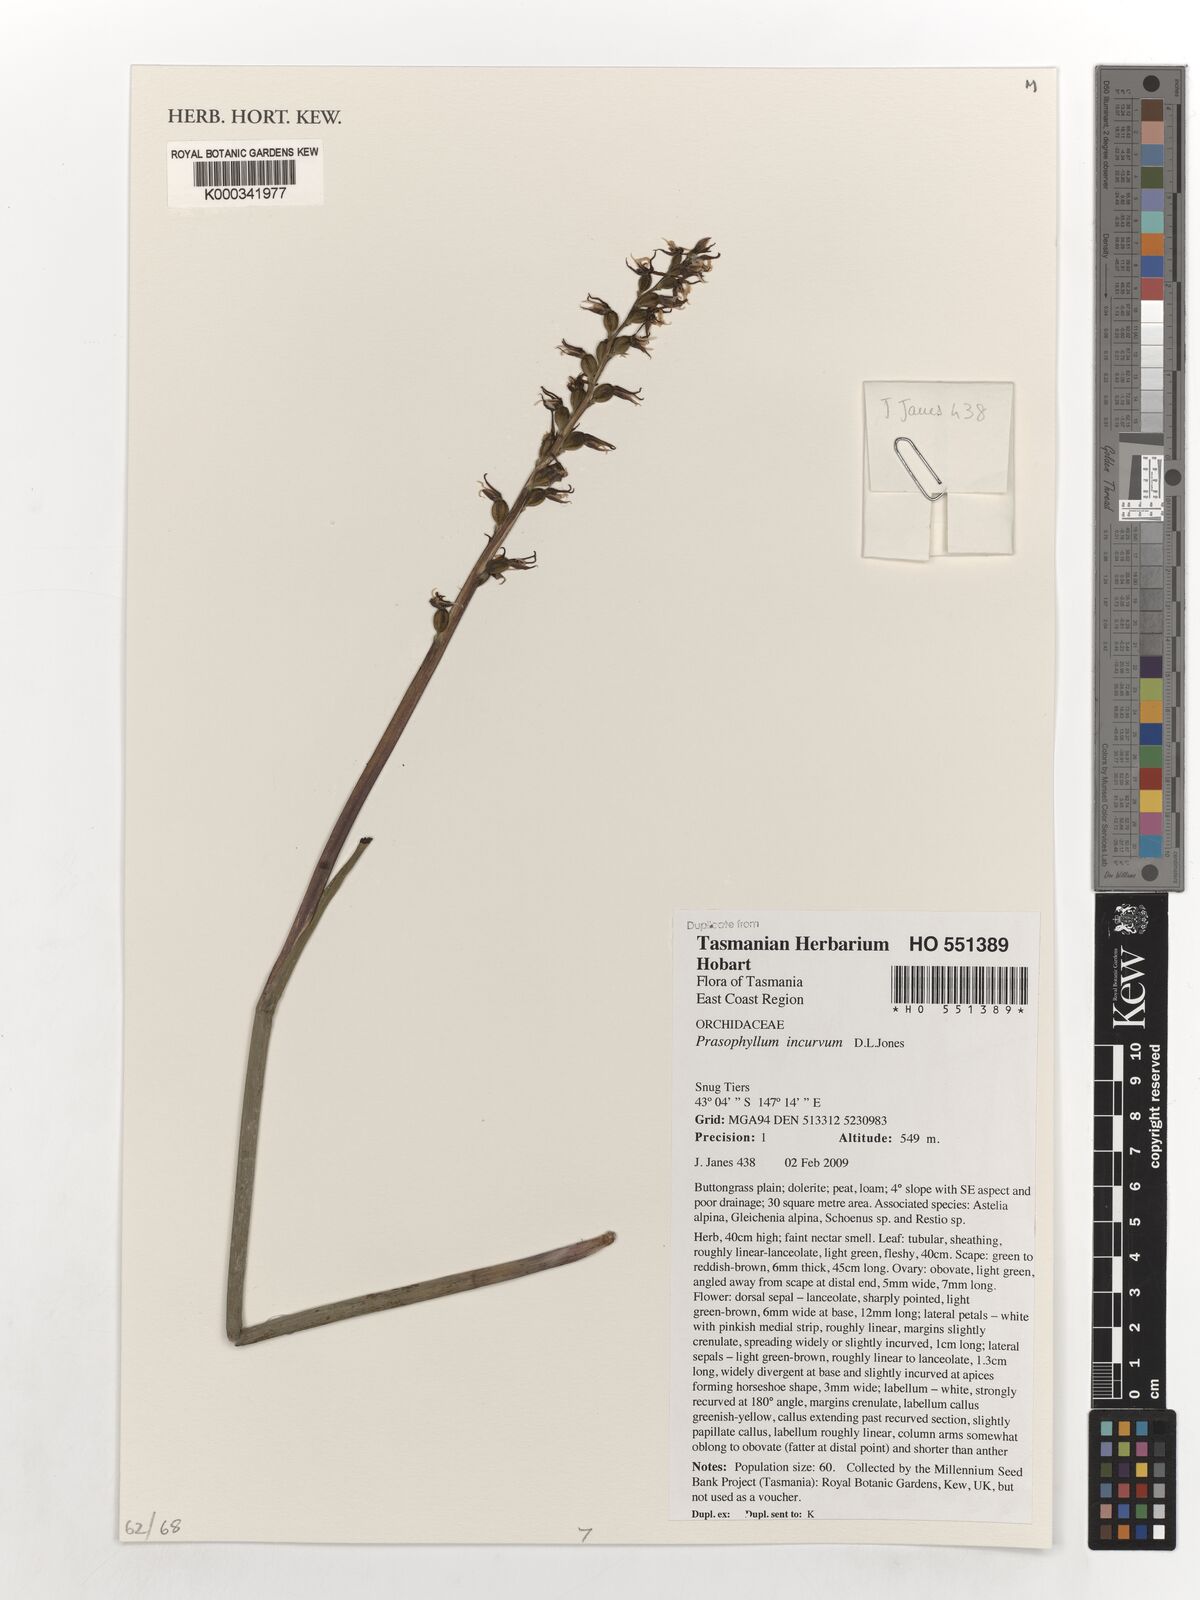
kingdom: Plantae
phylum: Tracheophyta
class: Liliopsida
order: Asparagales
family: Orchidaceae
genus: Prasophyllum
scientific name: Prasophyllum incurvum
